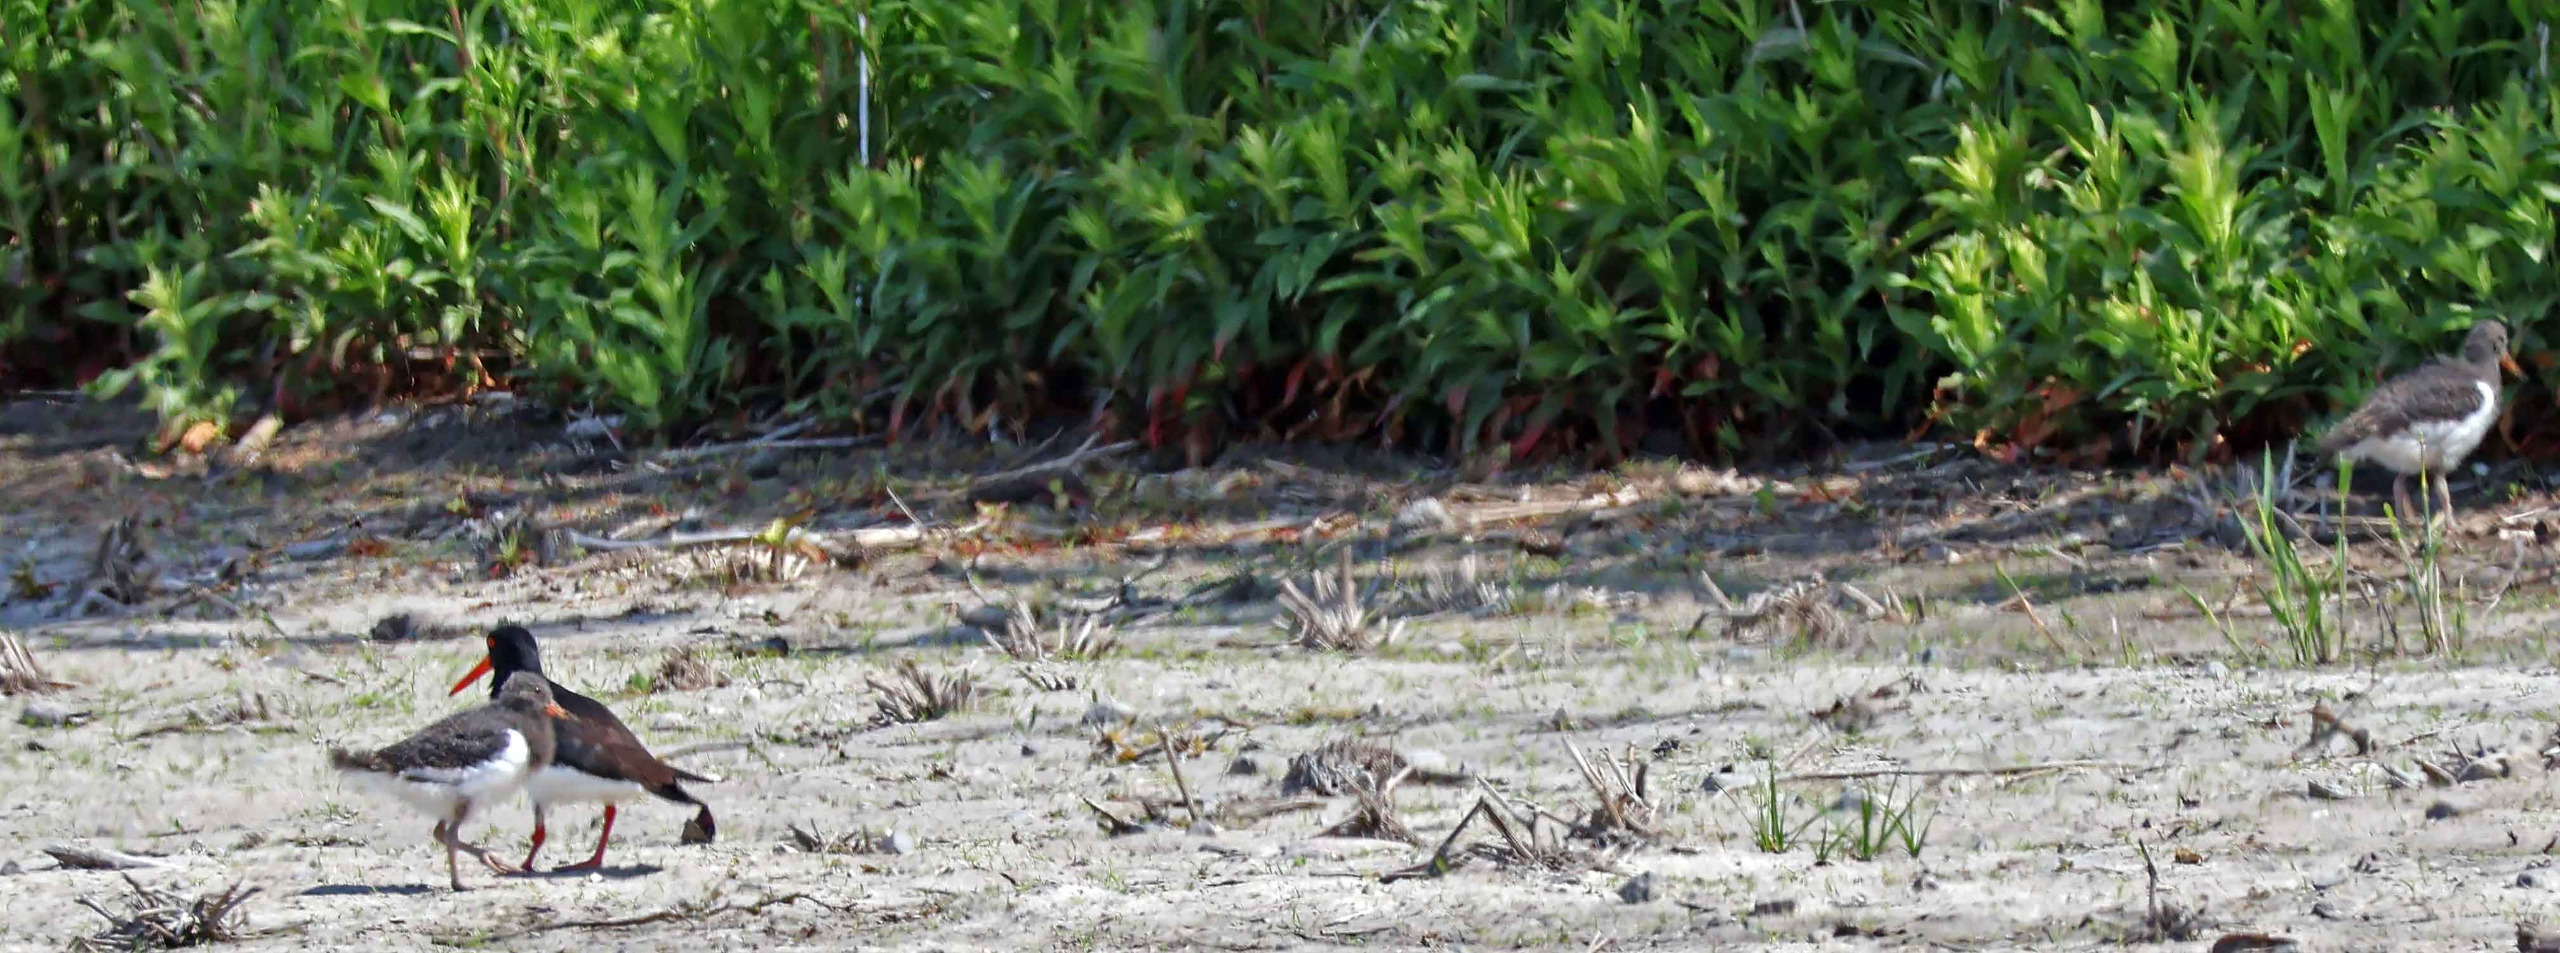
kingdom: Animalia
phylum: Chordata
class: Aves
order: Charadriiformes
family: Haematopodidae
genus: Haematopus
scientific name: Haematopus ostralegus
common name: Strandskade
